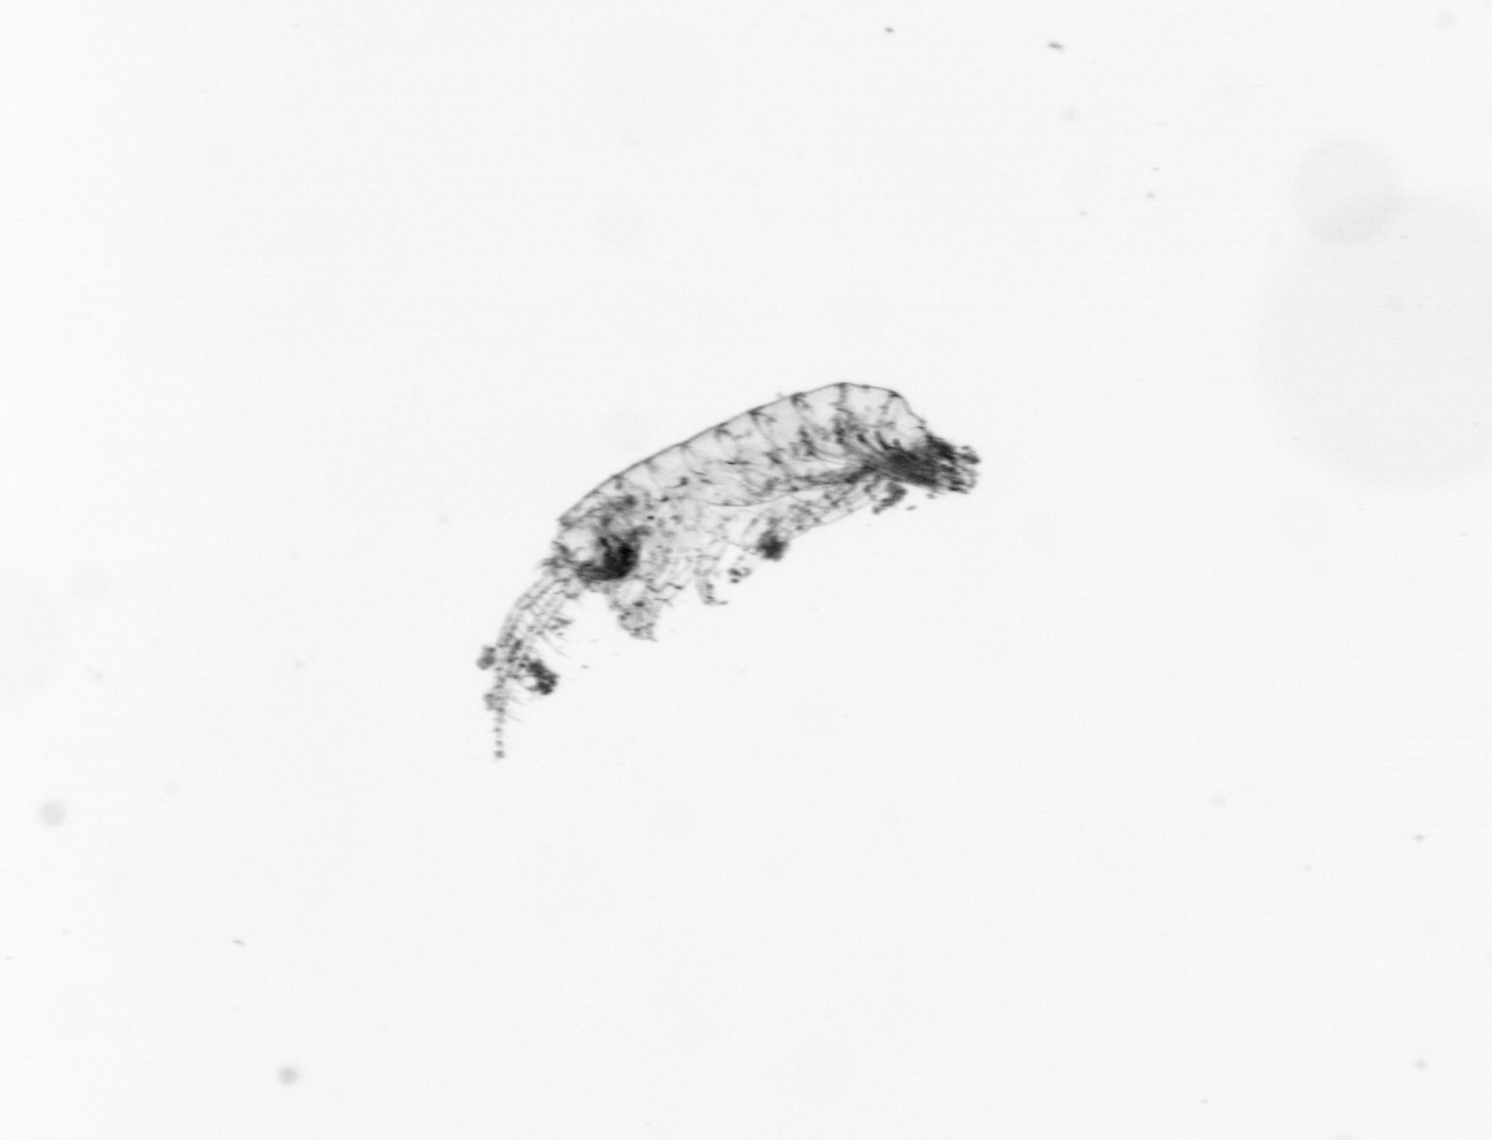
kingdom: Animalia
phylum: Annelida
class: Polychaeta
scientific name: Polychaeta
